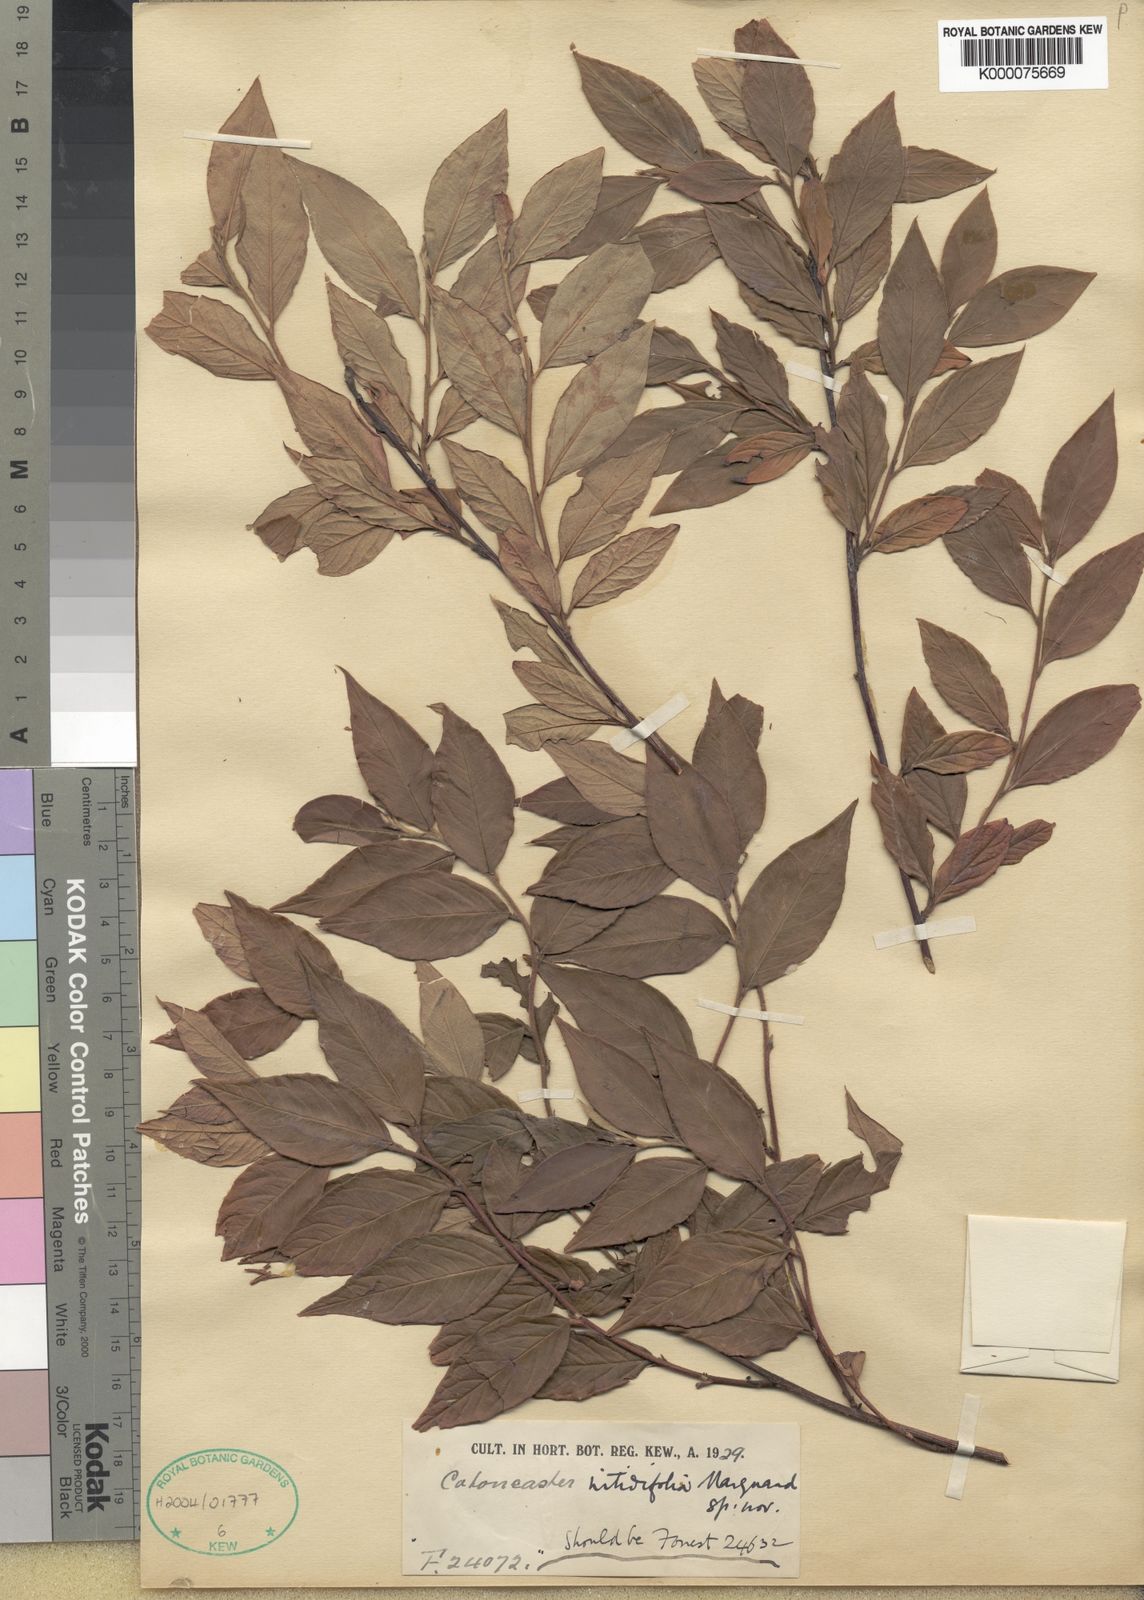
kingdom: Plantae
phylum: Tracheophyta
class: Magnoliopsida
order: Rosales
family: Rosaceae
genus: Cotoneaster
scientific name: Cotoneaster bullatus
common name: Hollyberry cotoneaster
